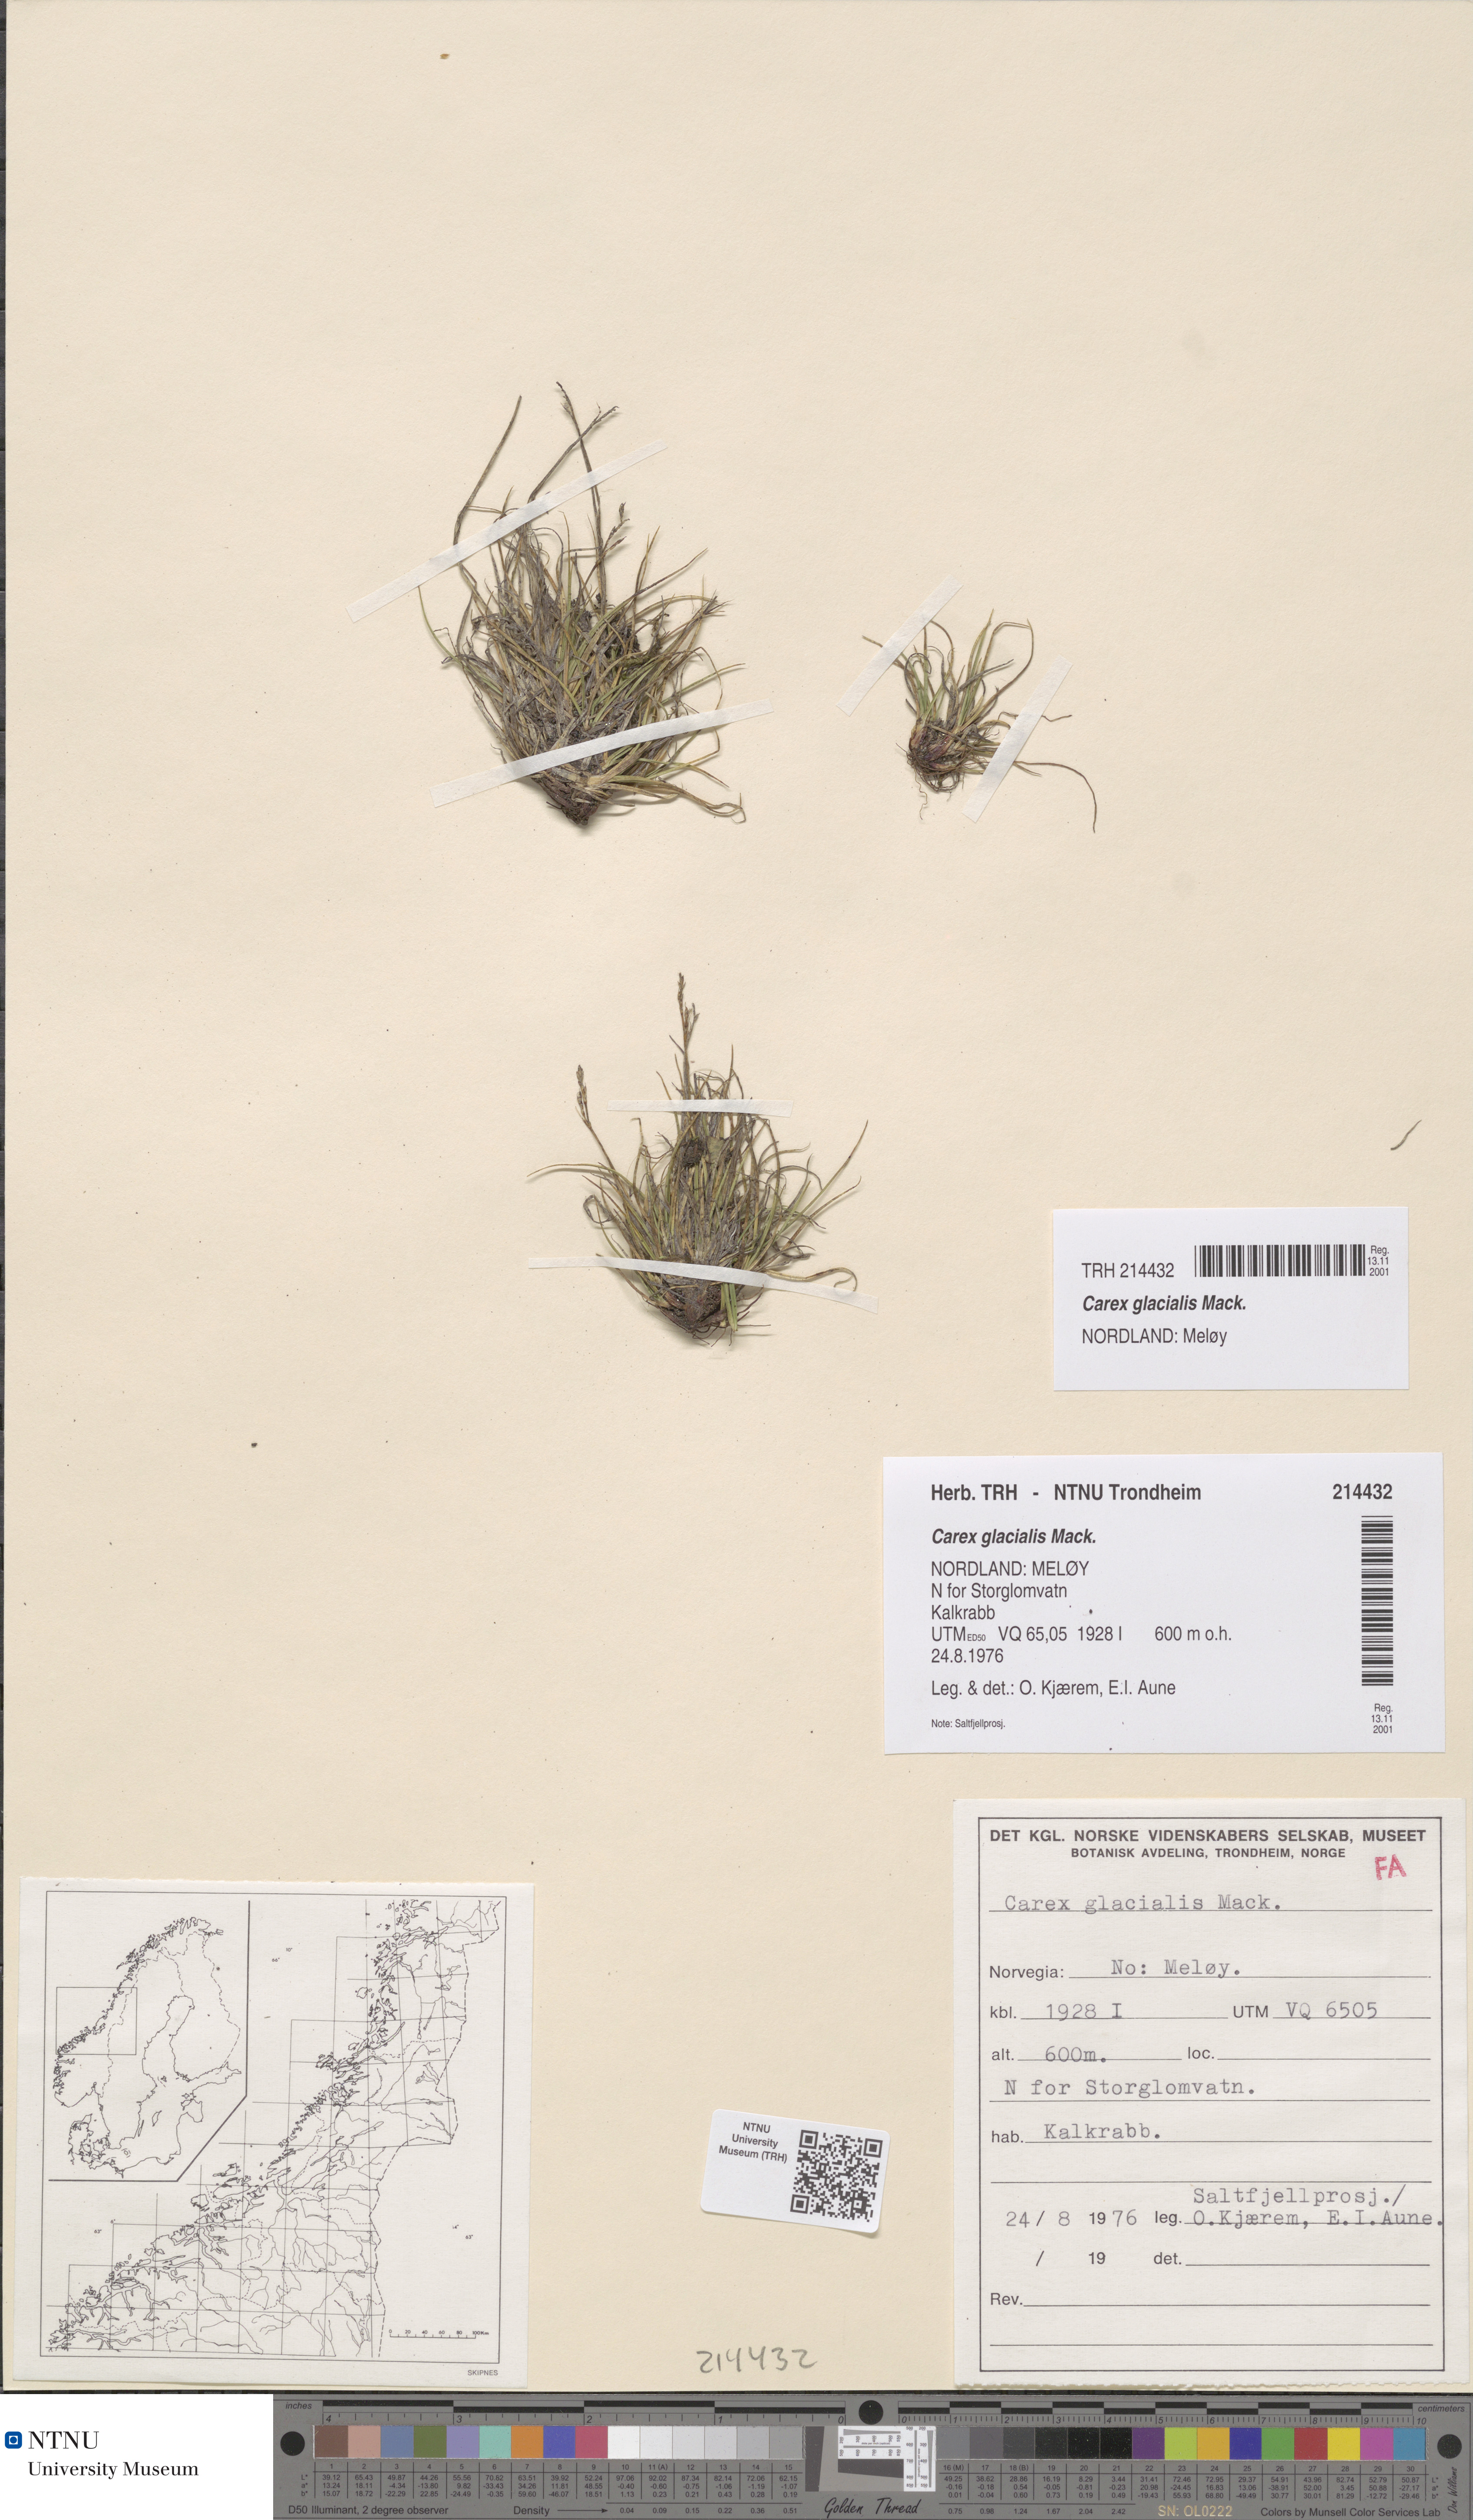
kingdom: Plantae
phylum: Tracheophyta
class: Liliopsida
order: Poales
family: Cyperaceae
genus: Carex
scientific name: Carex glacialis
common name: Newfoundland sedge
